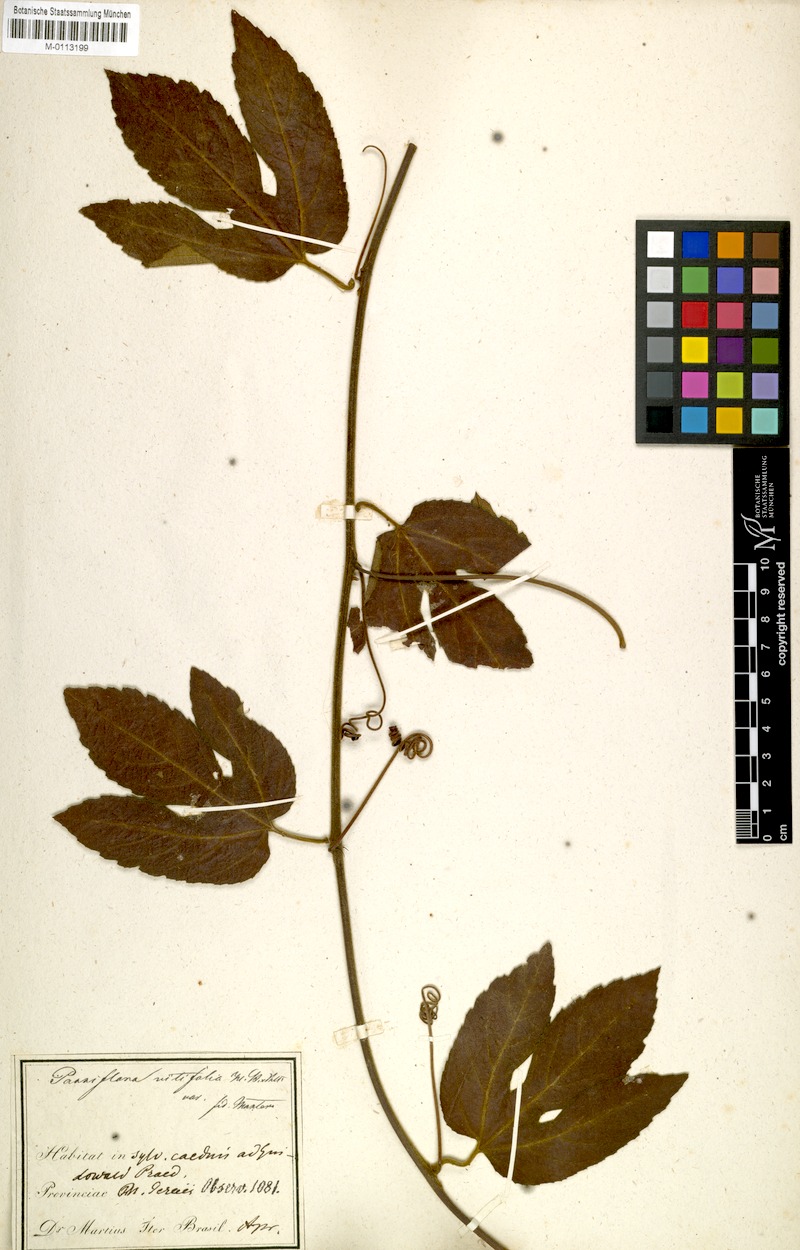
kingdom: Plantae
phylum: Tracheophyta
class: Magnoliopsida
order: Malpighiales
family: Passifloraceae
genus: Passiflora
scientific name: Passiflora vitifolia
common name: Perfumed passionflower
